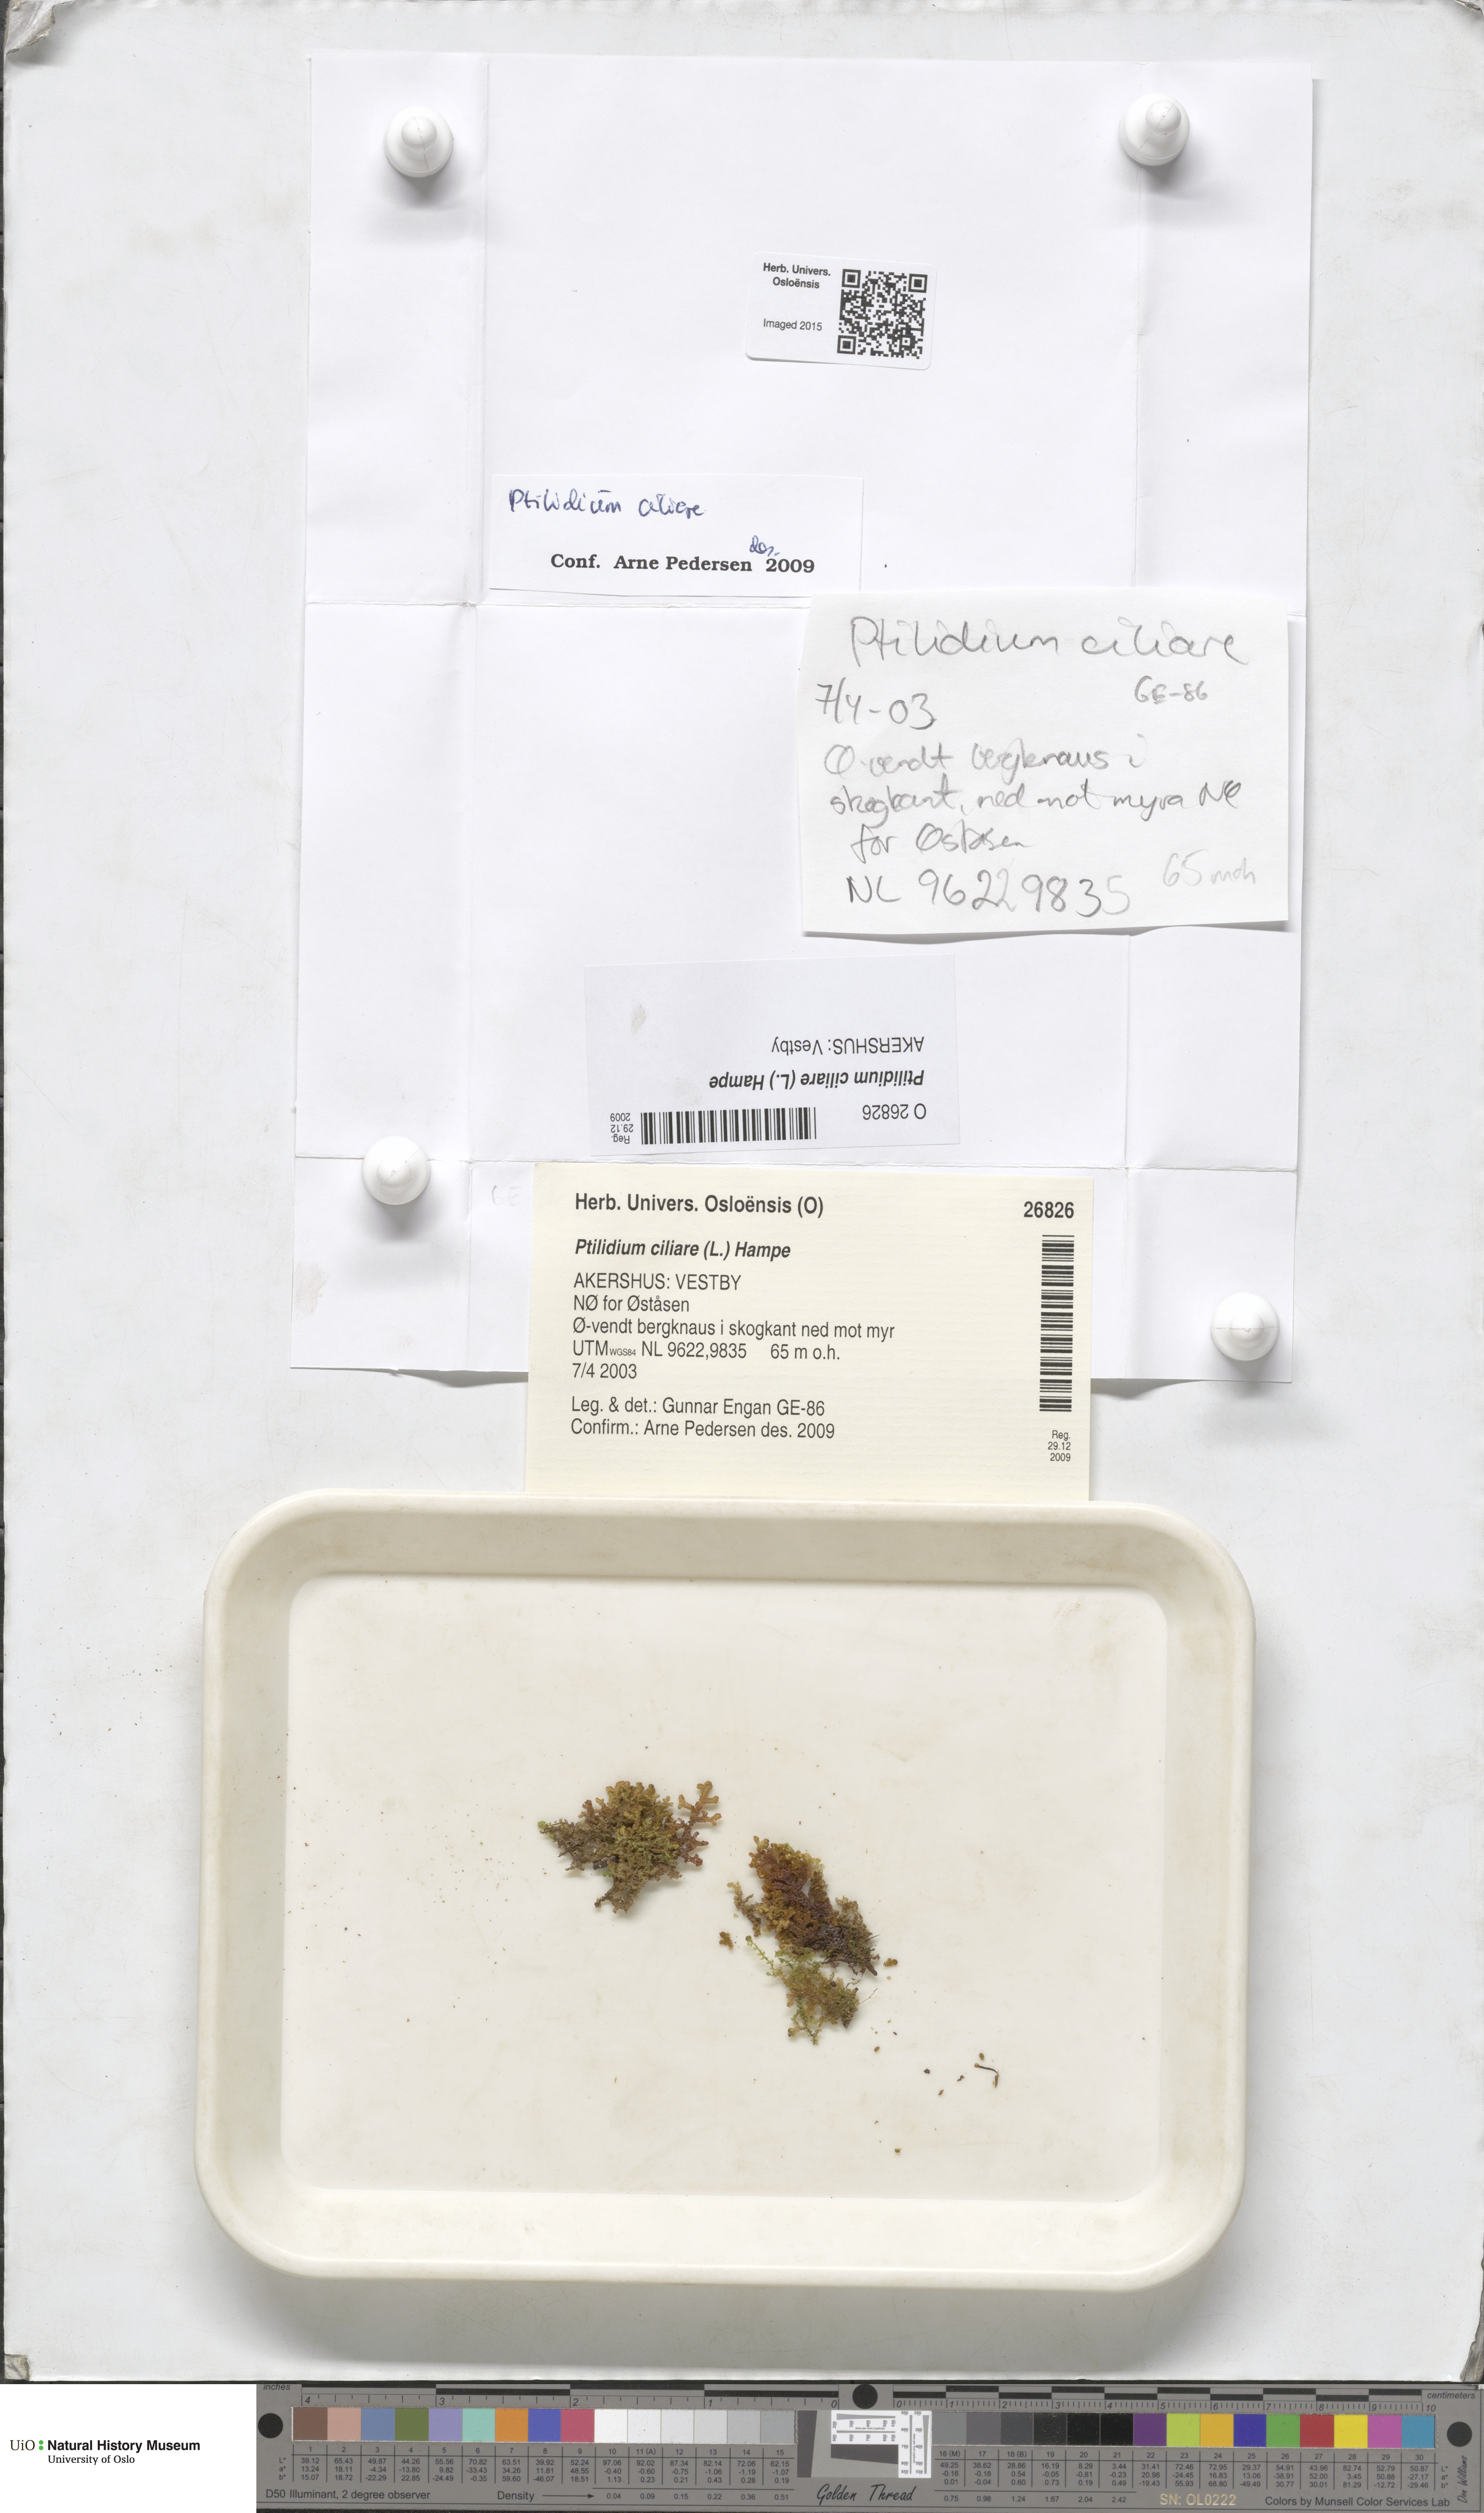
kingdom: Plantae
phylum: Marchantiophyta
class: Jungermanniopsida
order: Ptilidiales
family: Ptilidiaceae
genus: Ptilidium
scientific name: Ptilidium ciliare
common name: Ciliate fringewort
